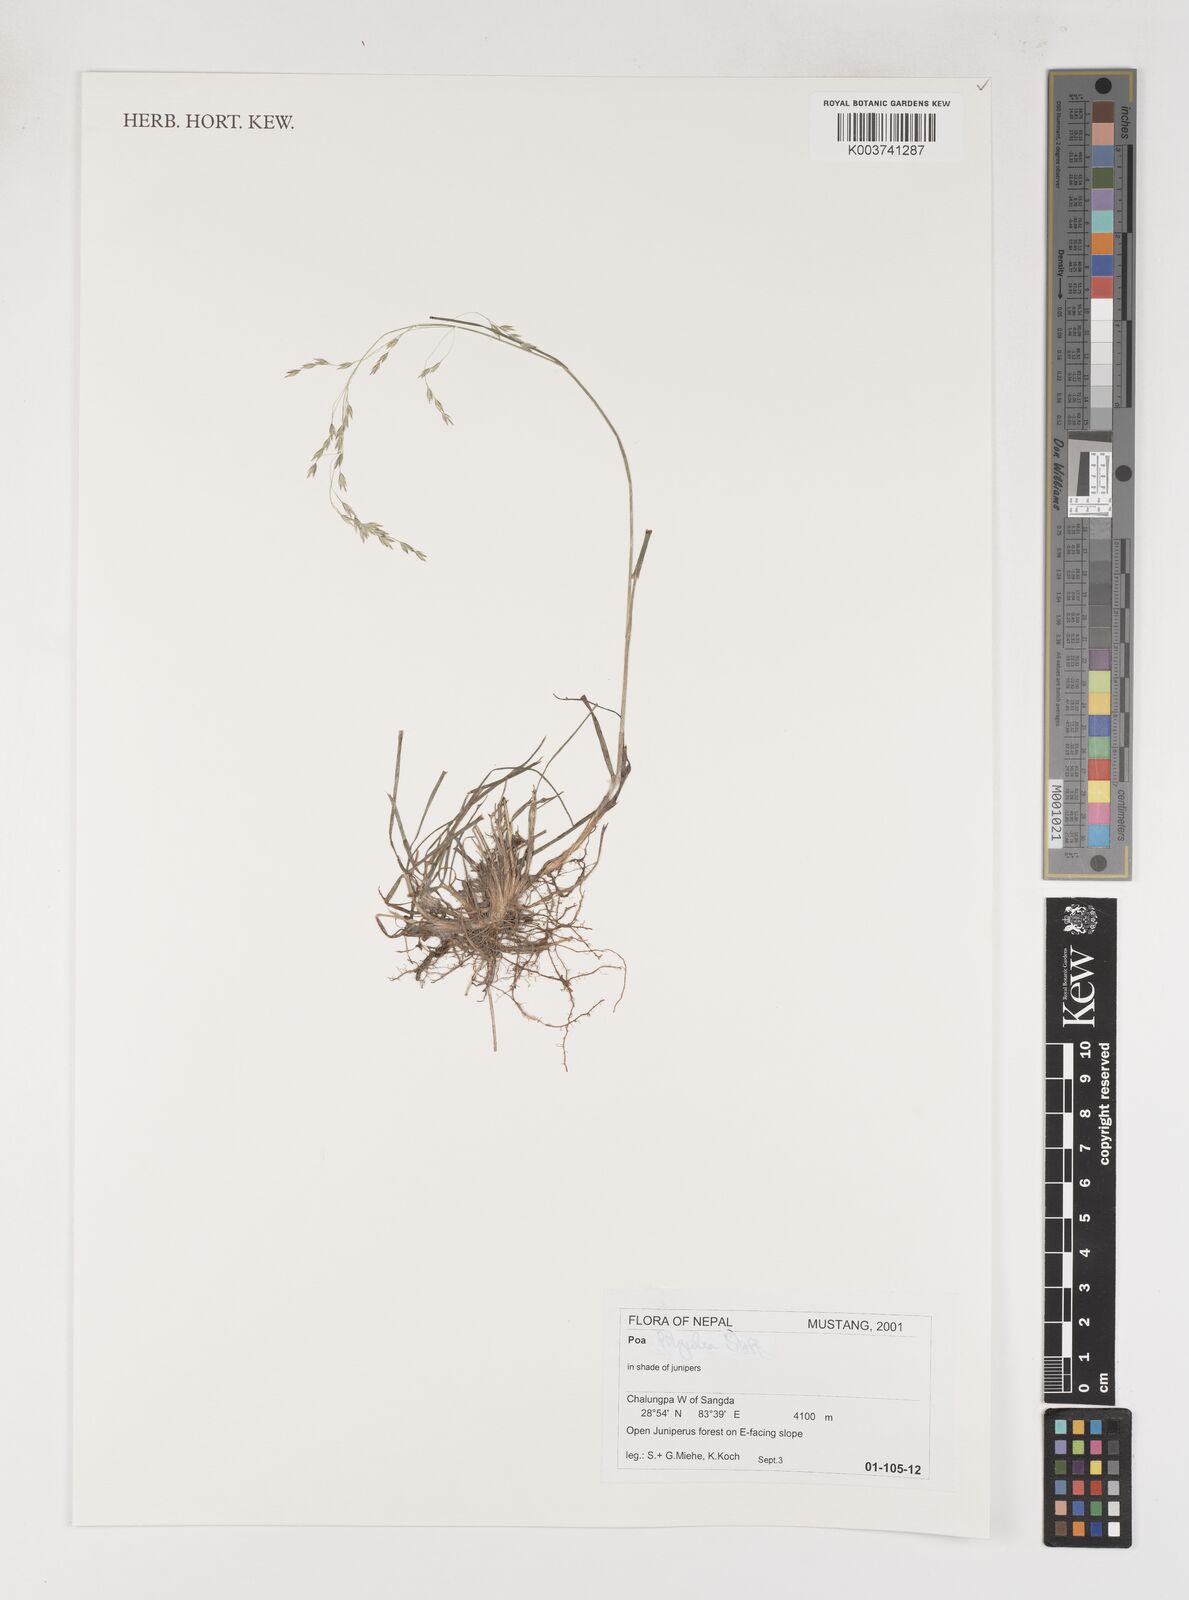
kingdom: Plantae
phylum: Tracheophyta
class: Liliopsida
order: Poales
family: Poaceae
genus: Poa
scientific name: Poa
